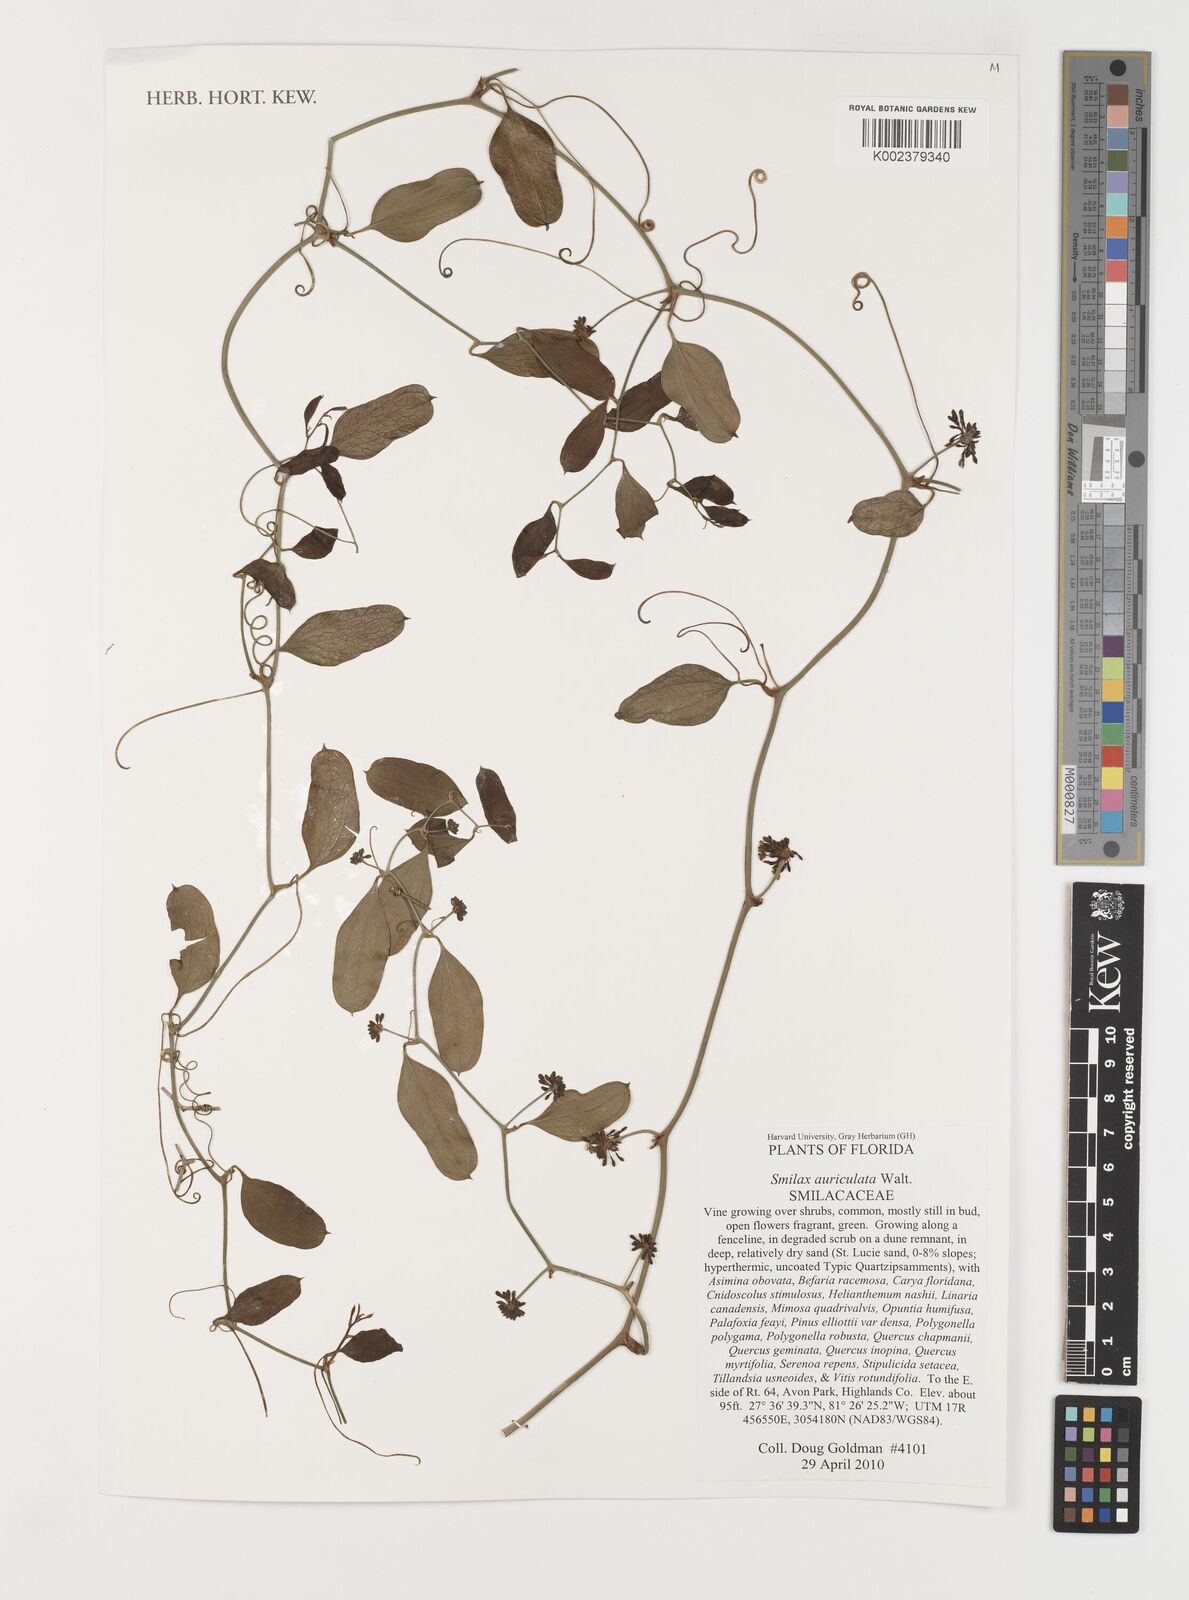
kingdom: Plantae
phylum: Tracheophyta
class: Liliopsida
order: Liliales
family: Smilacaceae
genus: Smilax
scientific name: Smilax auriculata
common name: Wild bamboo
